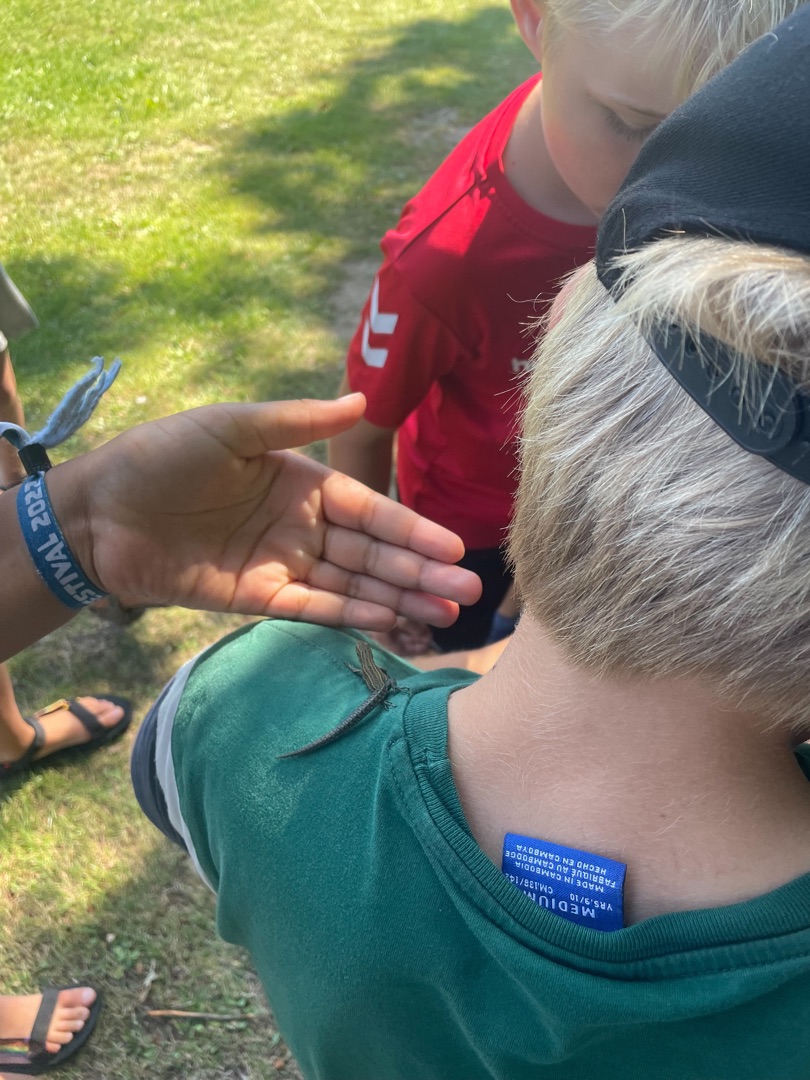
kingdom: Animalia
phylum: Chordata
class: Squamata
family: Lacertidae
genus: Zootoca
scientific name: Zootoca vivipara
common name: Skovfirben
